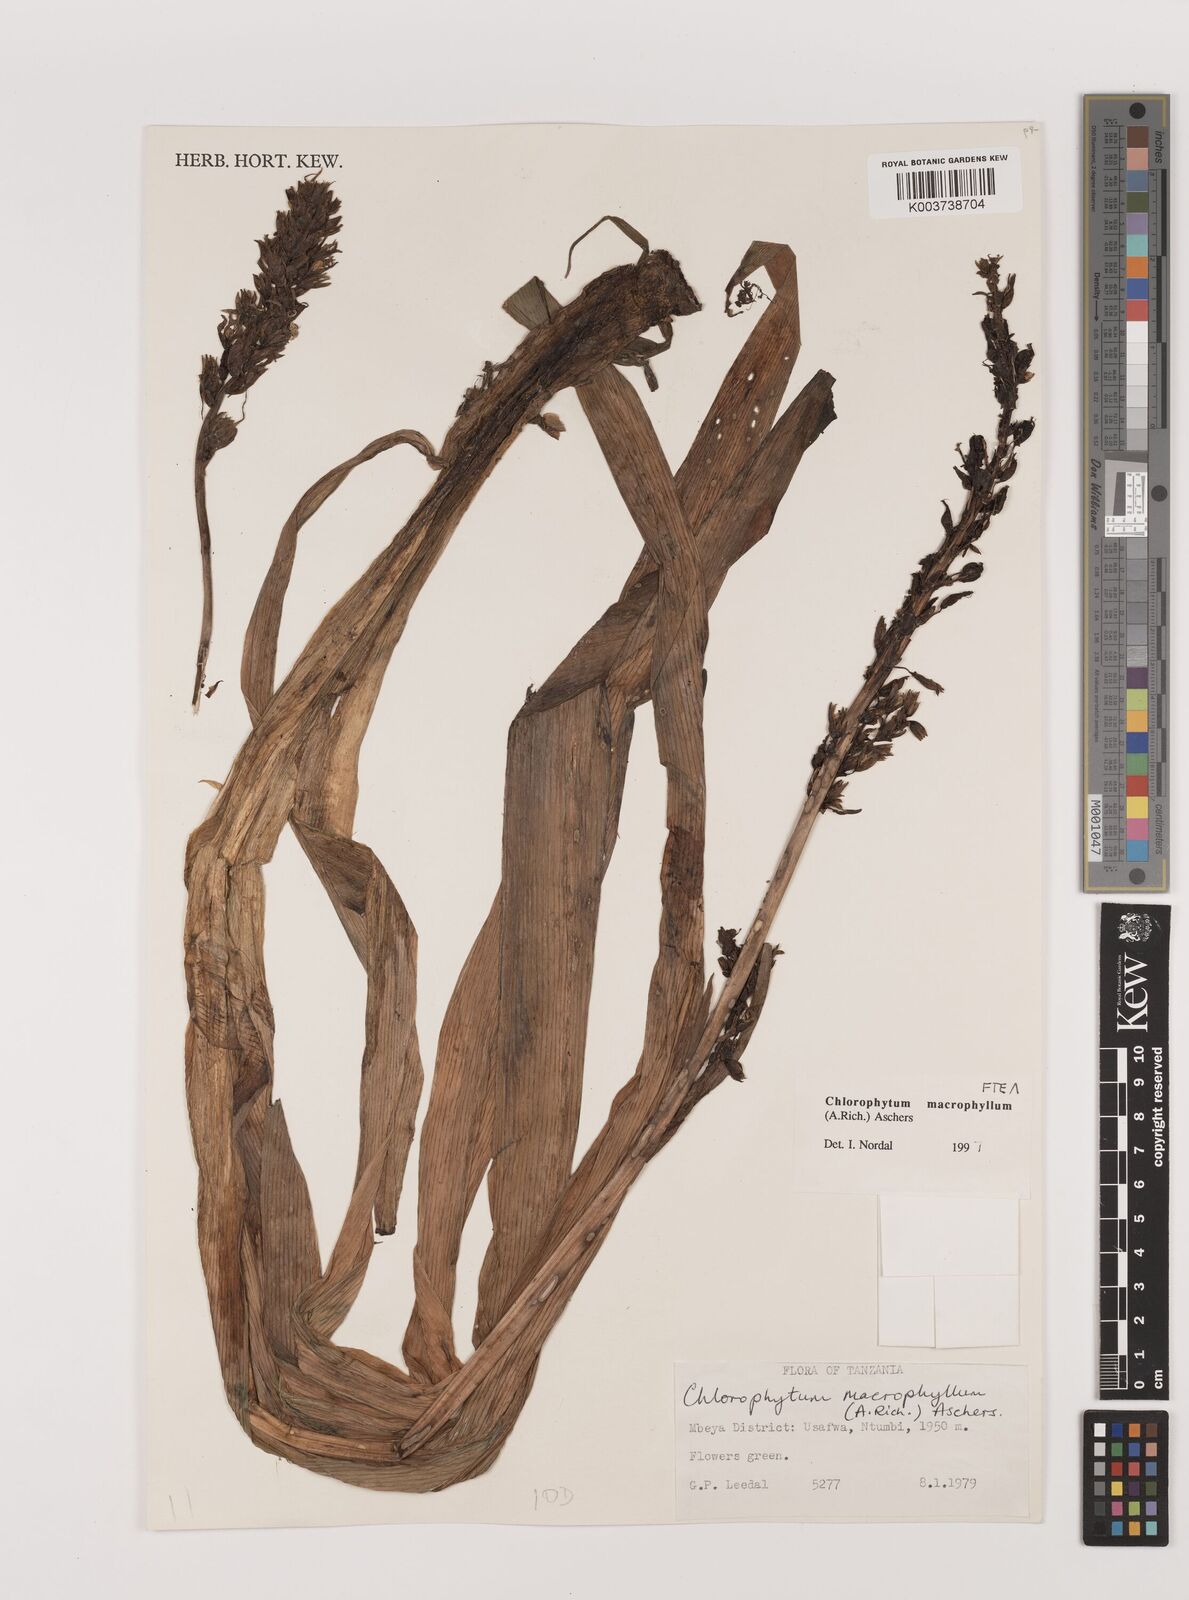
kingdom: Plantae
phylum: Tracheophyta
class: Liliopsida
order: Asparagales
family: Asparagaceae
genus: Chlorophytum
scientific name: Chlorophytum macrophyllum
